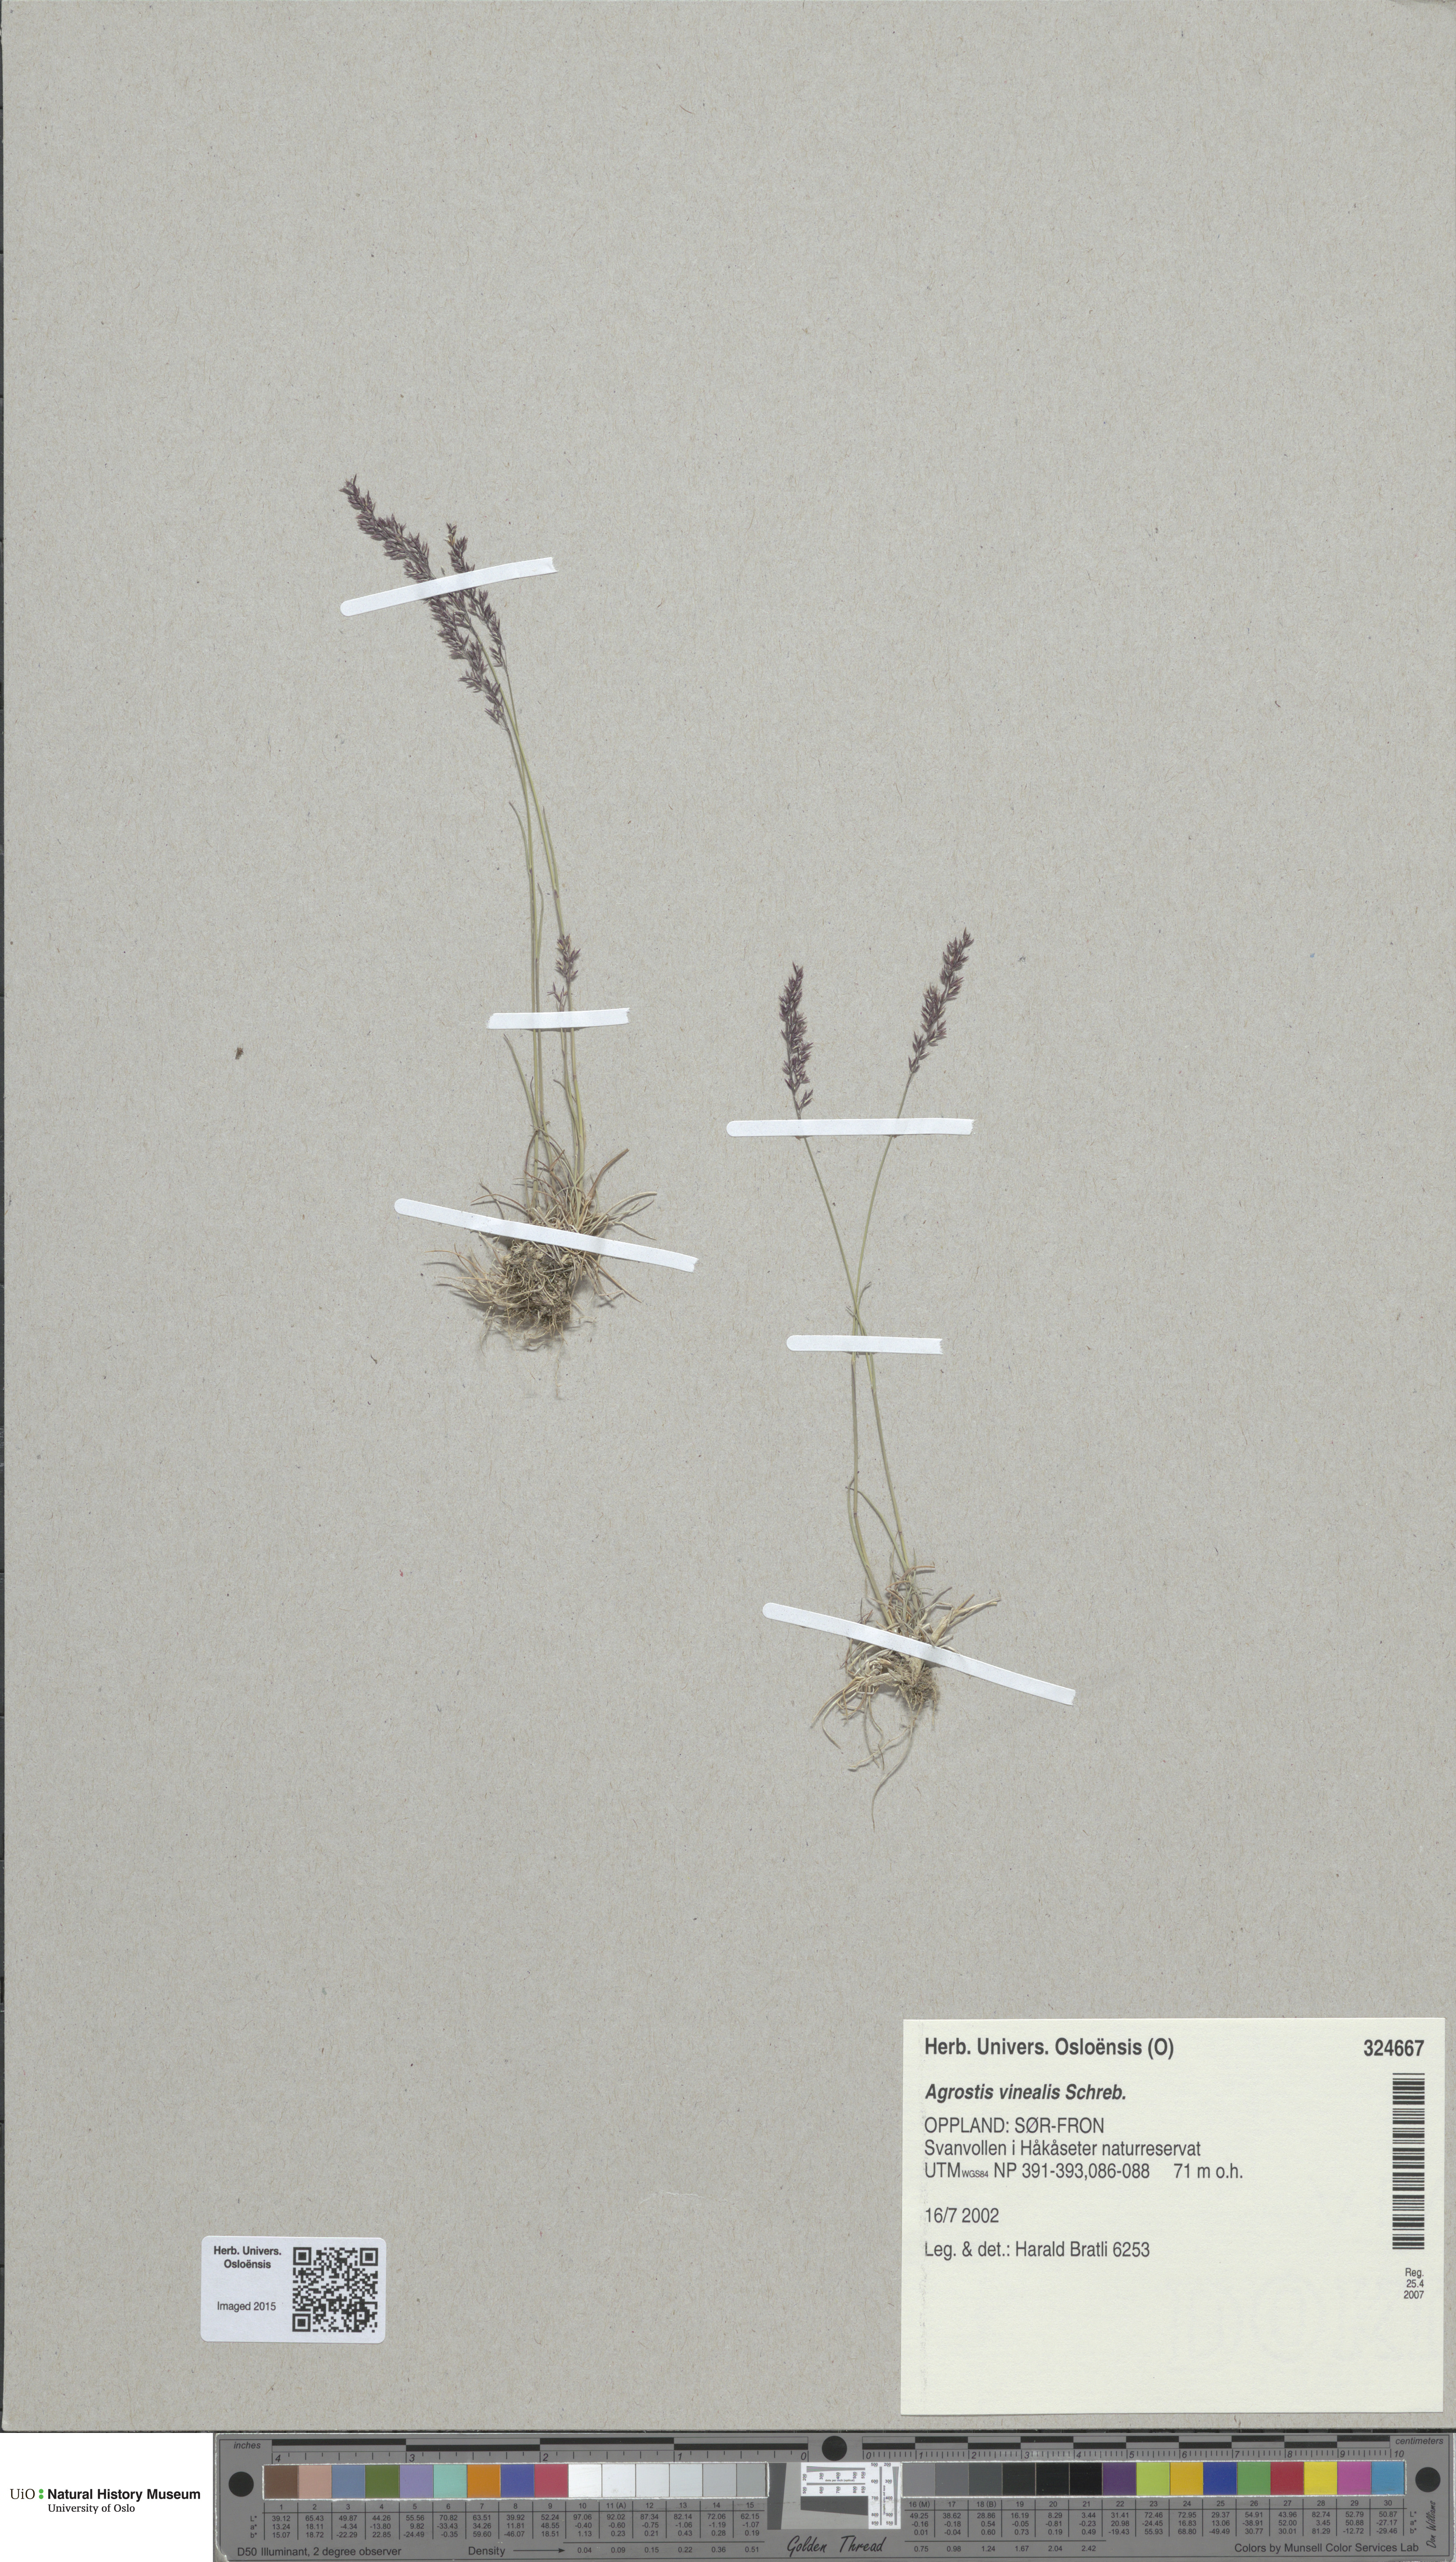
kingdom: Plantae
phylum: Tracheophyta
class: Liliopsida
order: Poales
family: Poaceae
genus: Agrostis
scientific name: Agrostis vinealis
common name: Brown bent
